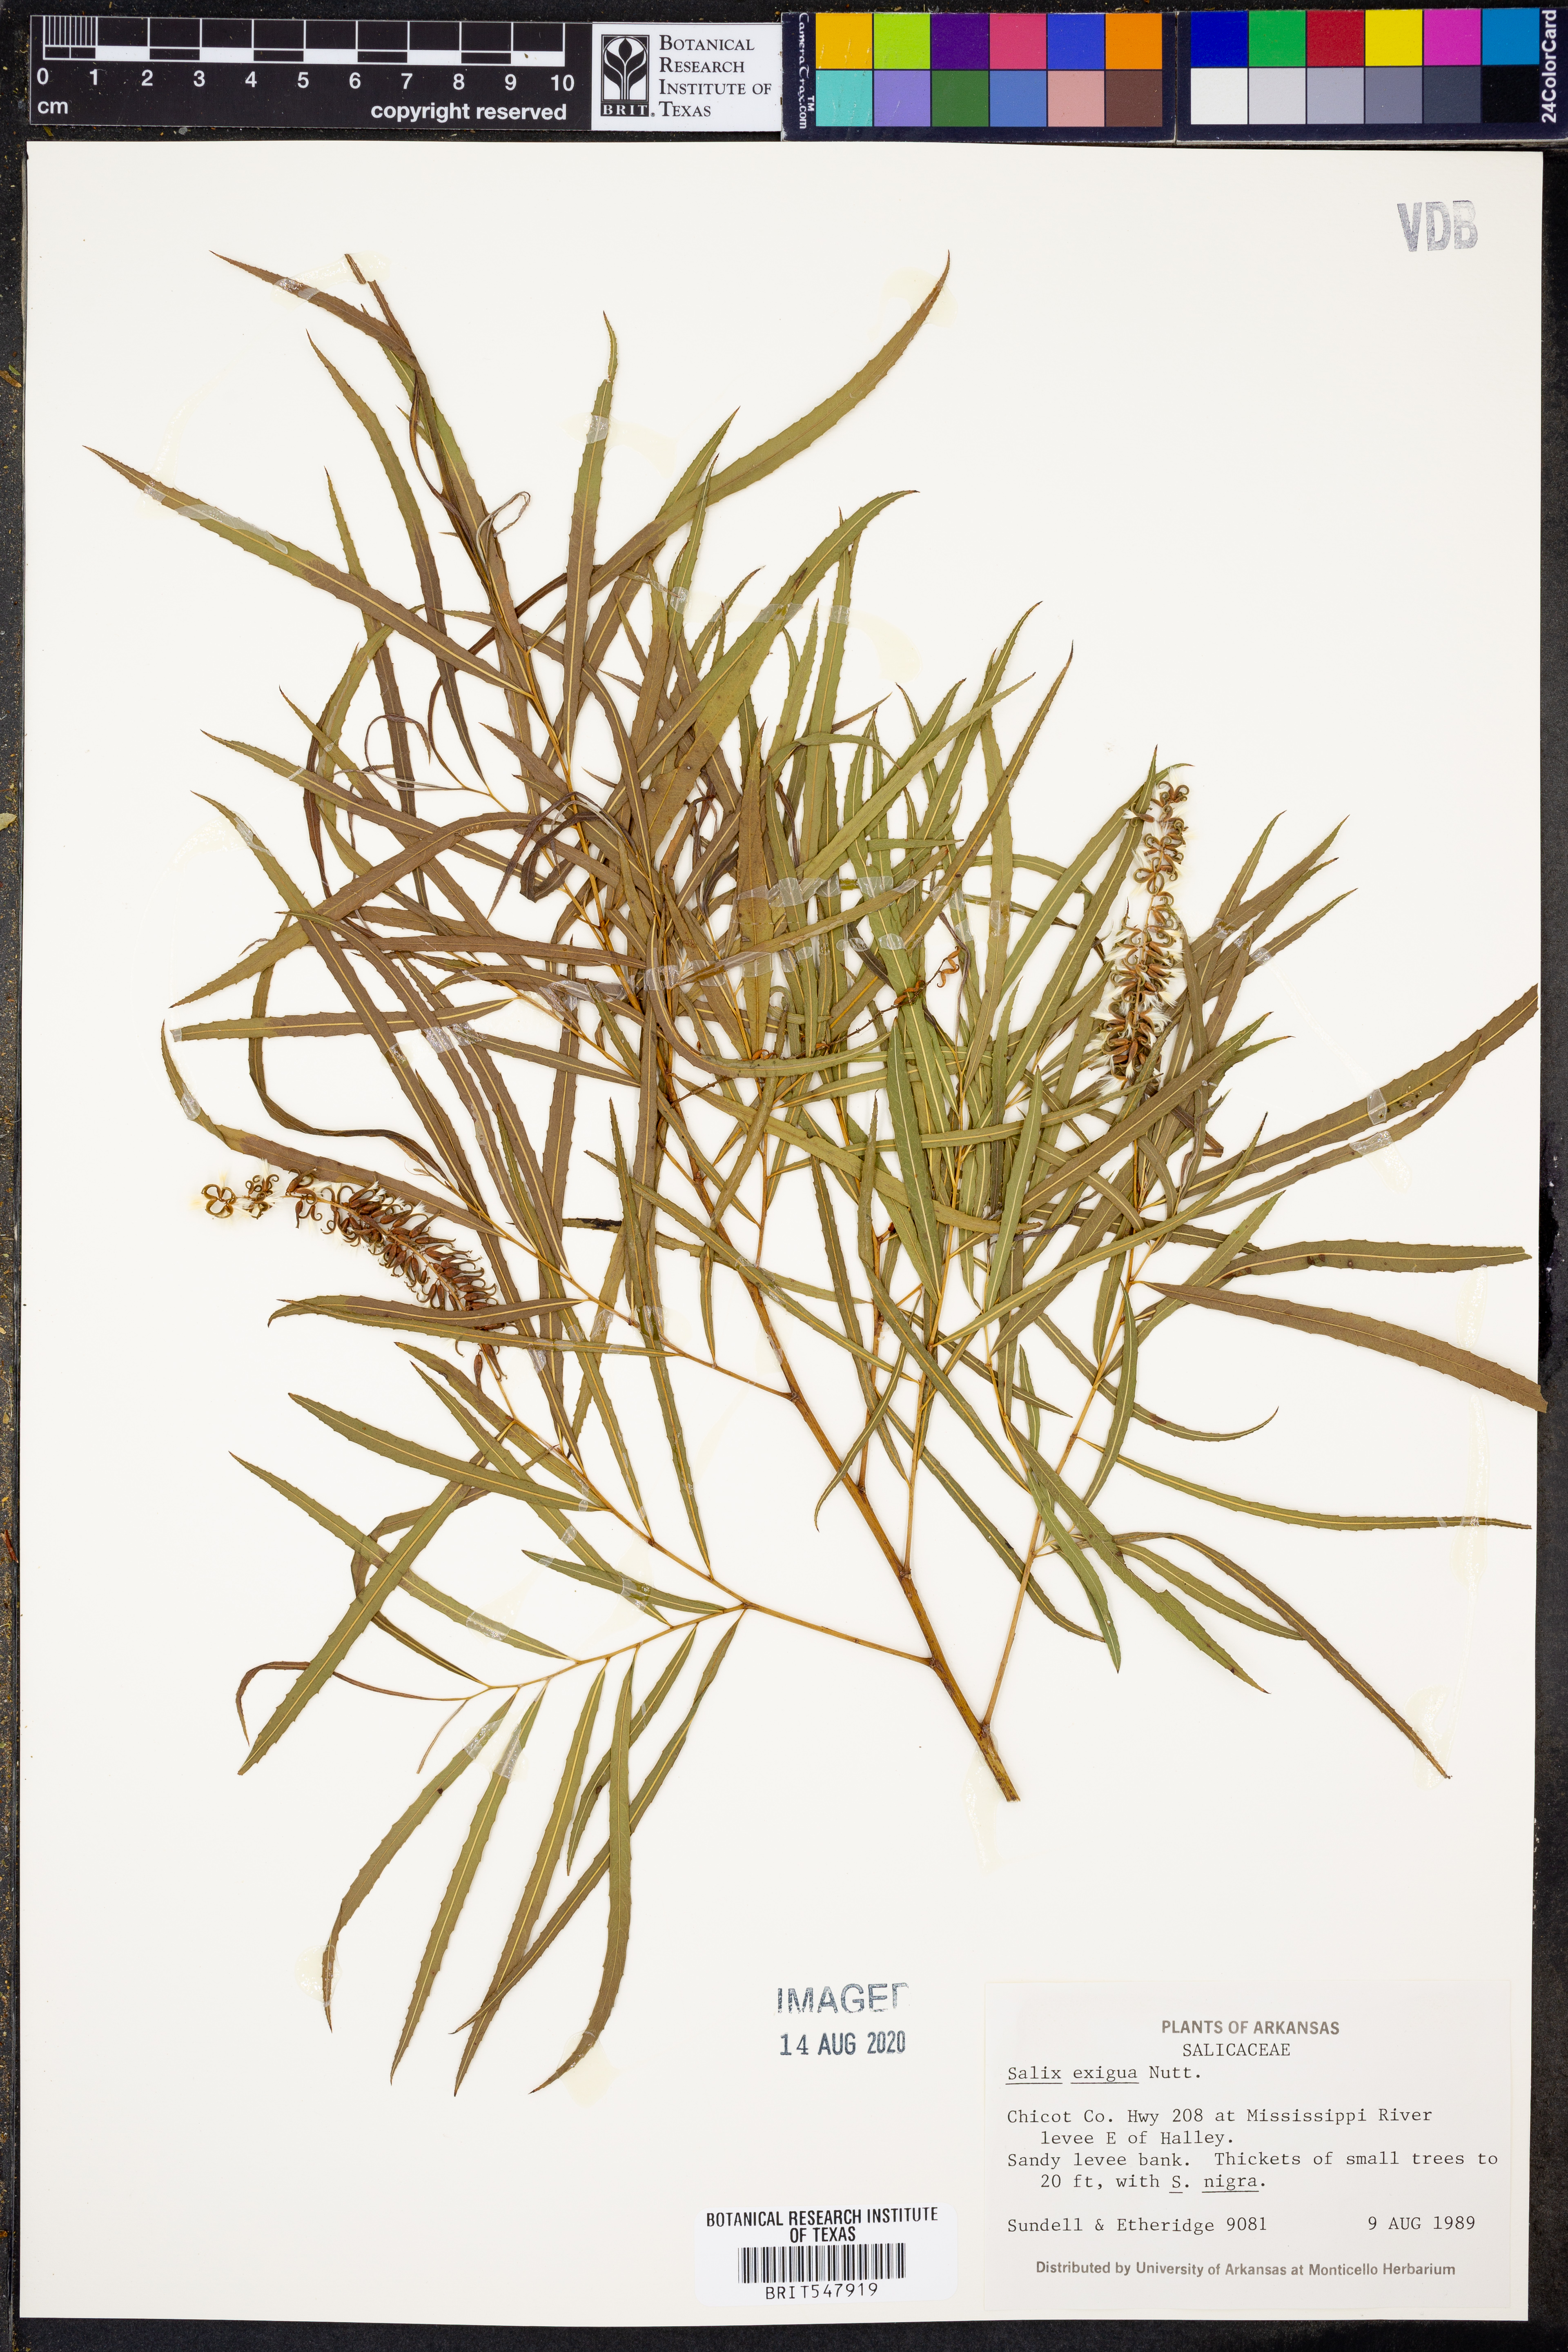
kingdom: Plantae
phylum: Tracheophyta
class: Magnoliopsida
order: Malpighiales
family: Salicaceae
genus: Salix
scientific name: Salix exigua
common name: Coyote willow
